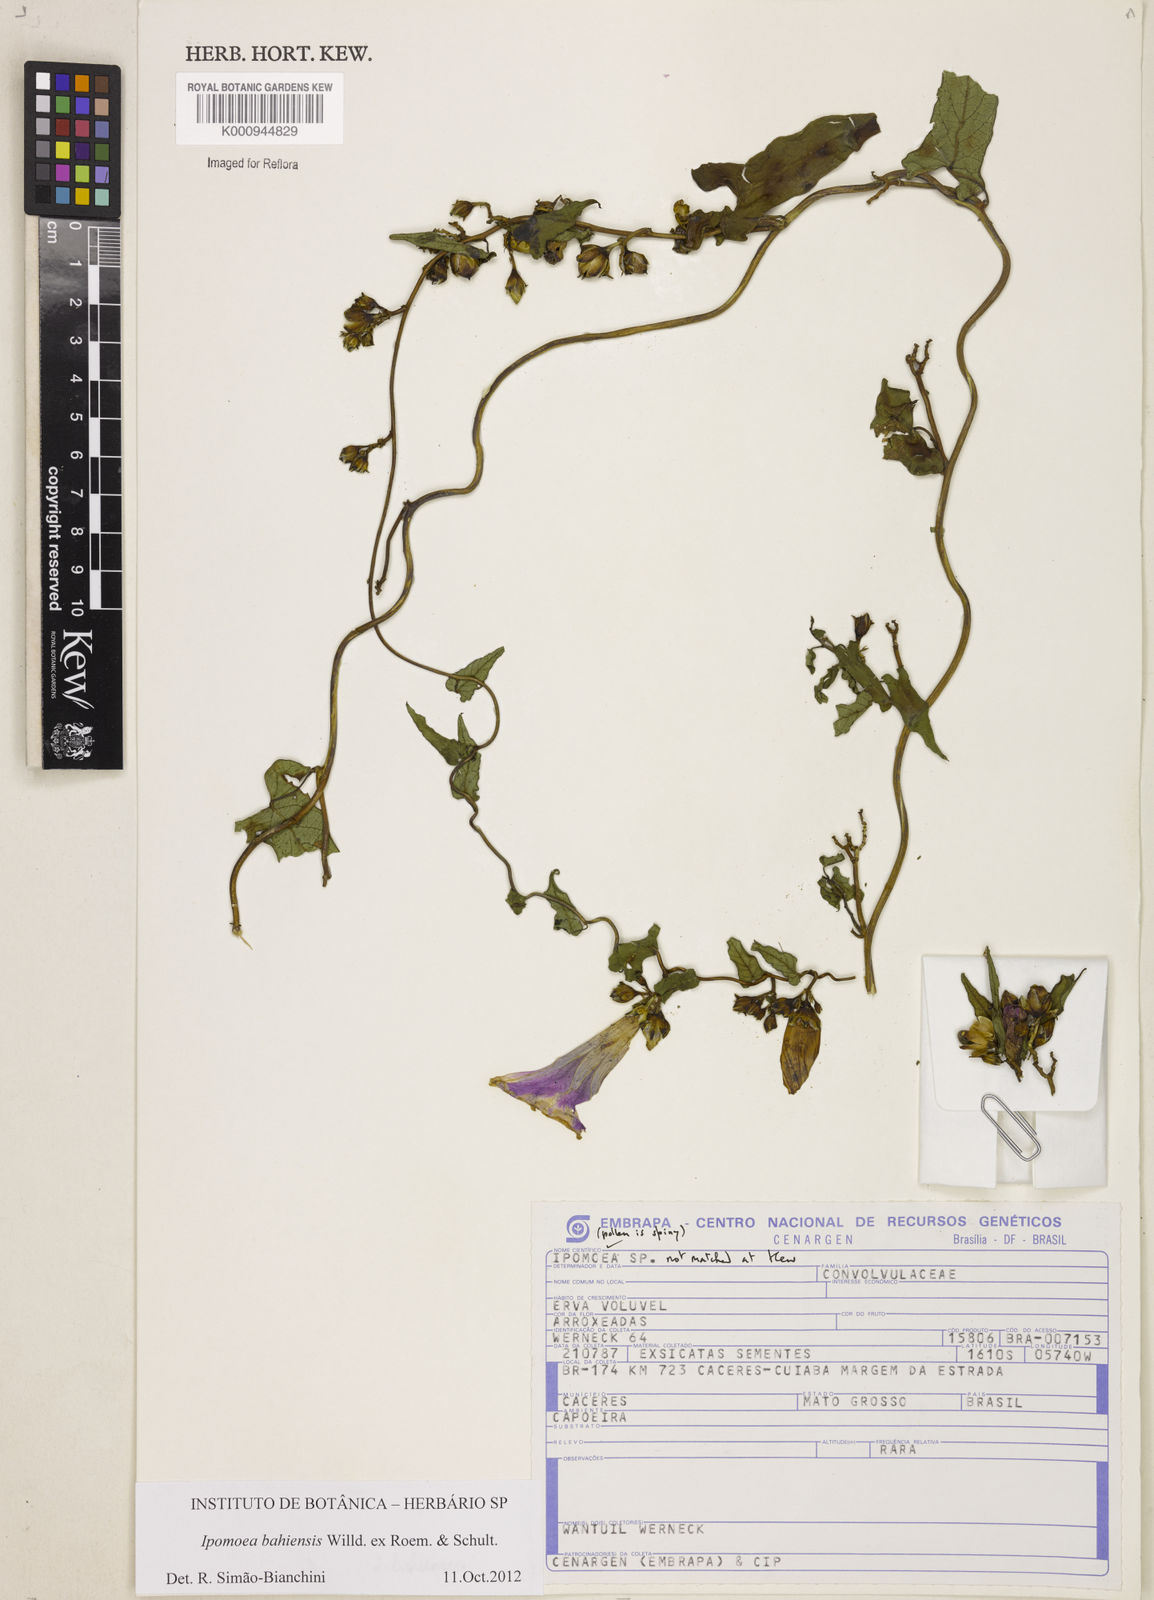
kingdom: Plantae
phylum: Tracheophyta
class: Magnoliopsida
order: Solanales
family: Convolvulaceae
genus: Ipomoea
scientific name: Ipomoea
